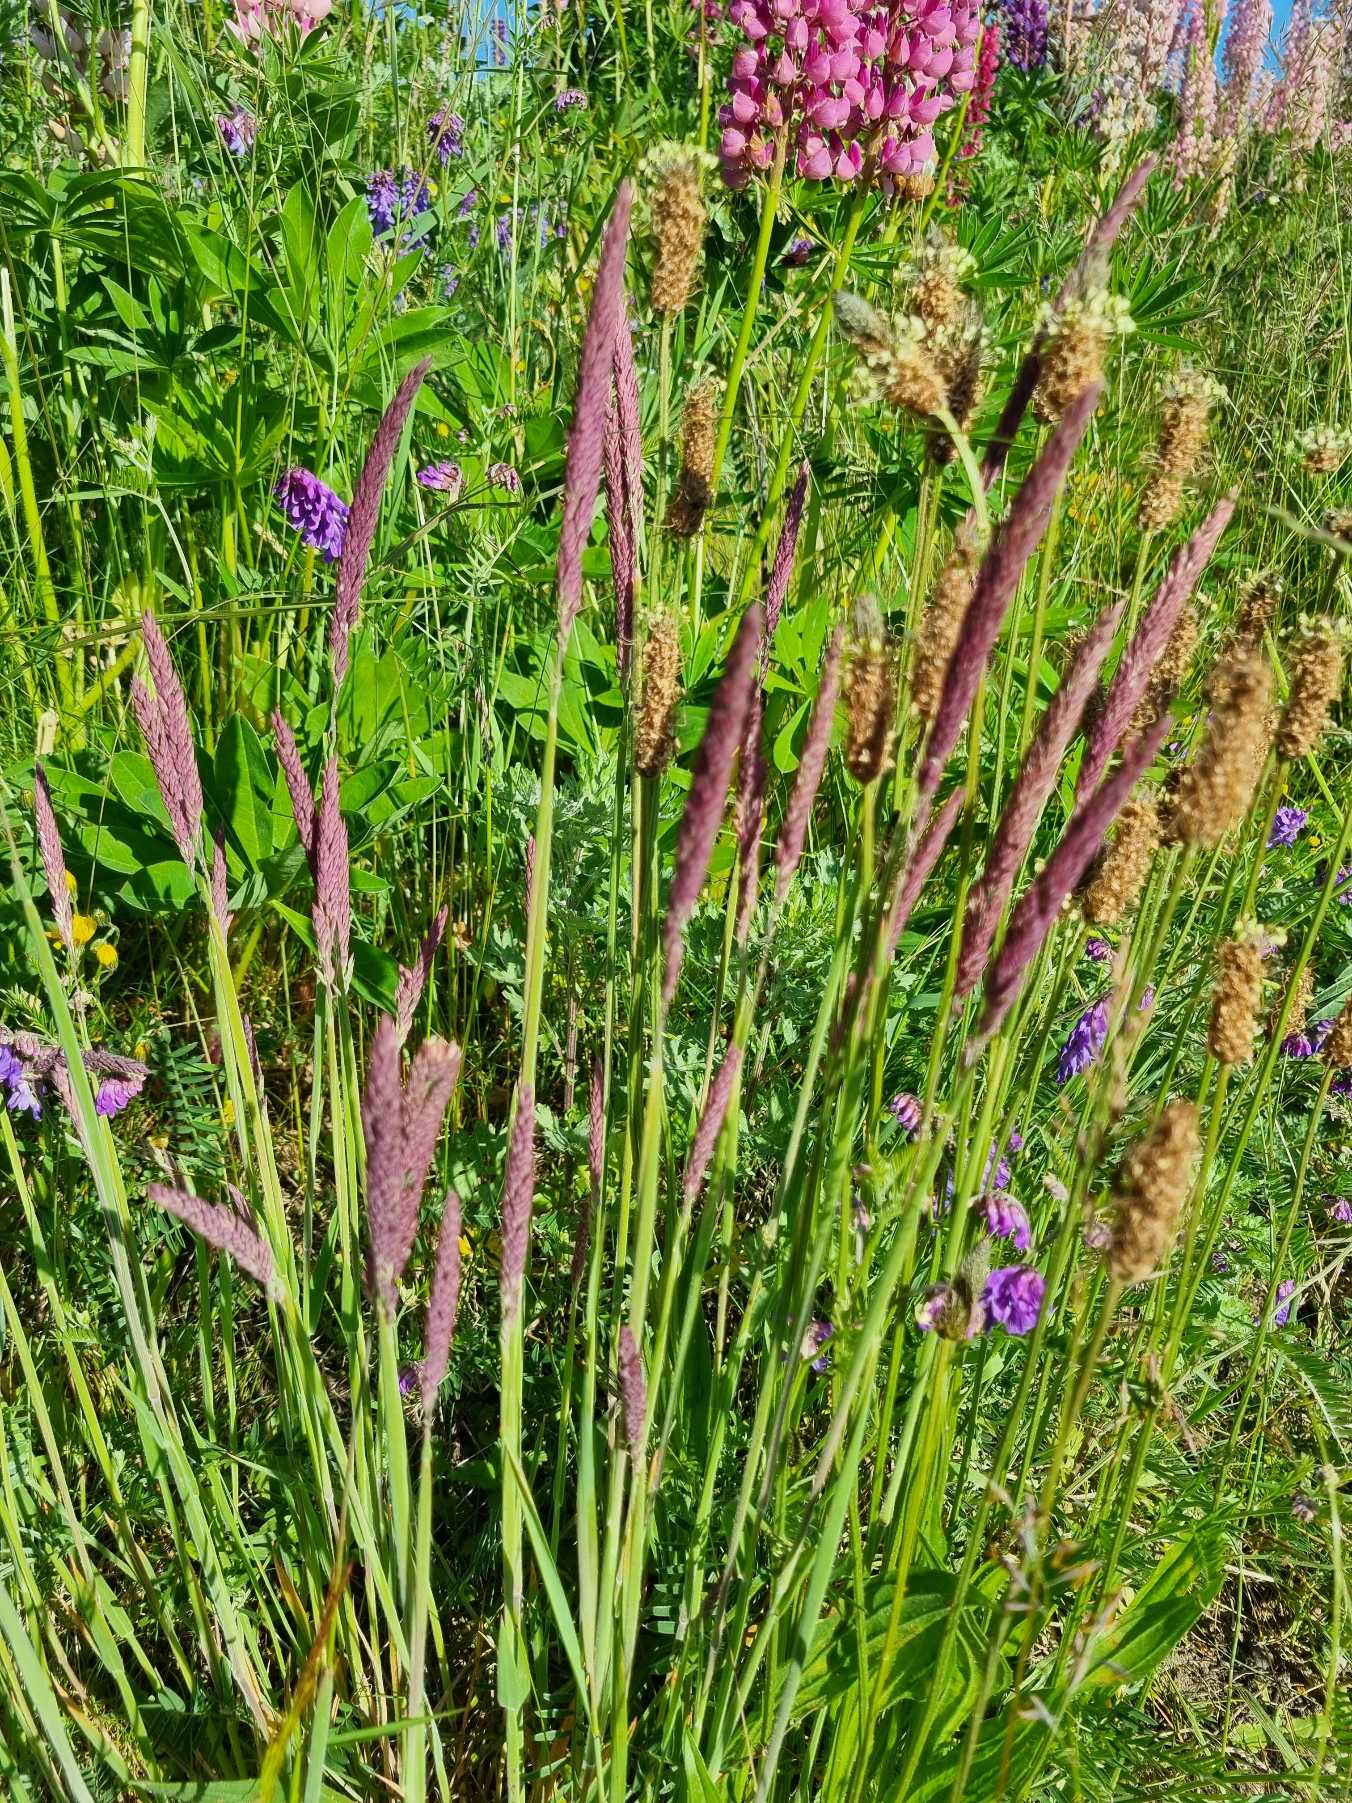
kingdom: Plantae
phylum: Tracheophyta
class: Liliopsida
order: Poales
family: Poaceae
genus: Holcus
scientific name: Holcus lanatus
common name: Fløjlsgræs
